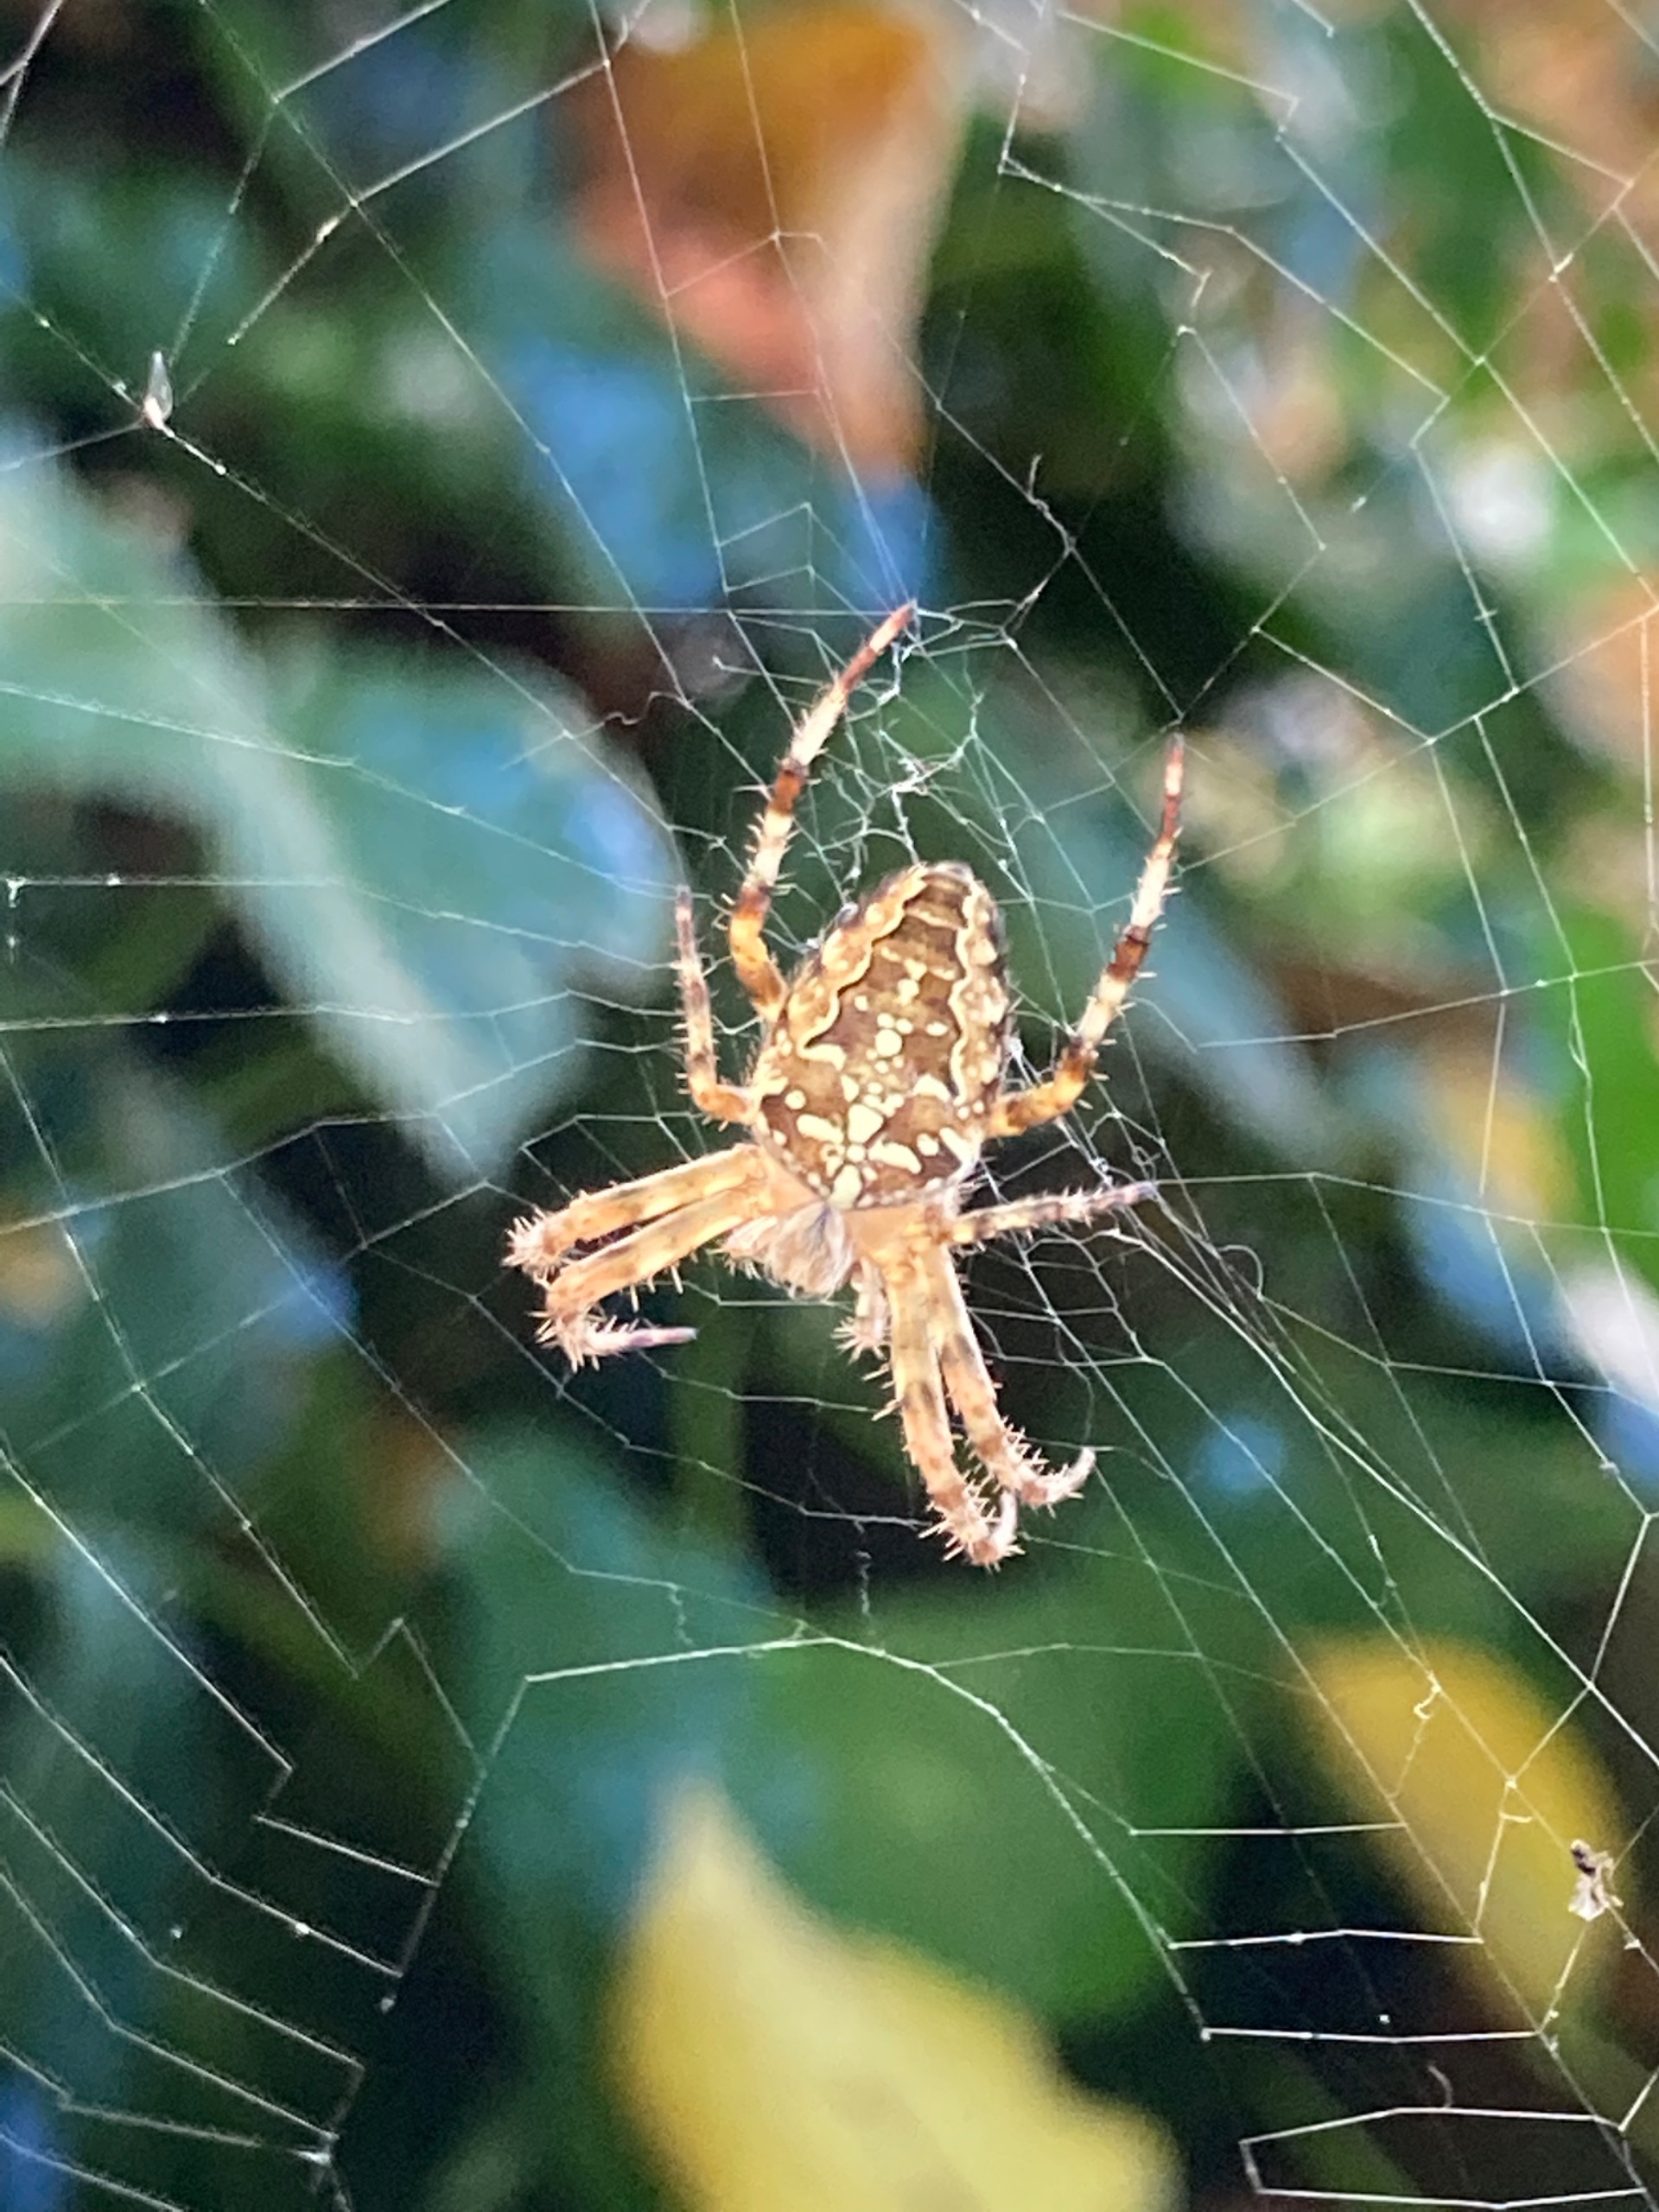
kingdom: Animalia
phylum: Arthropoda
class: Arachnida
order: Araneae
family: Araneidae
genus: Araneus
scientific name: Araneus diadematus
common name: Korsedderkop
